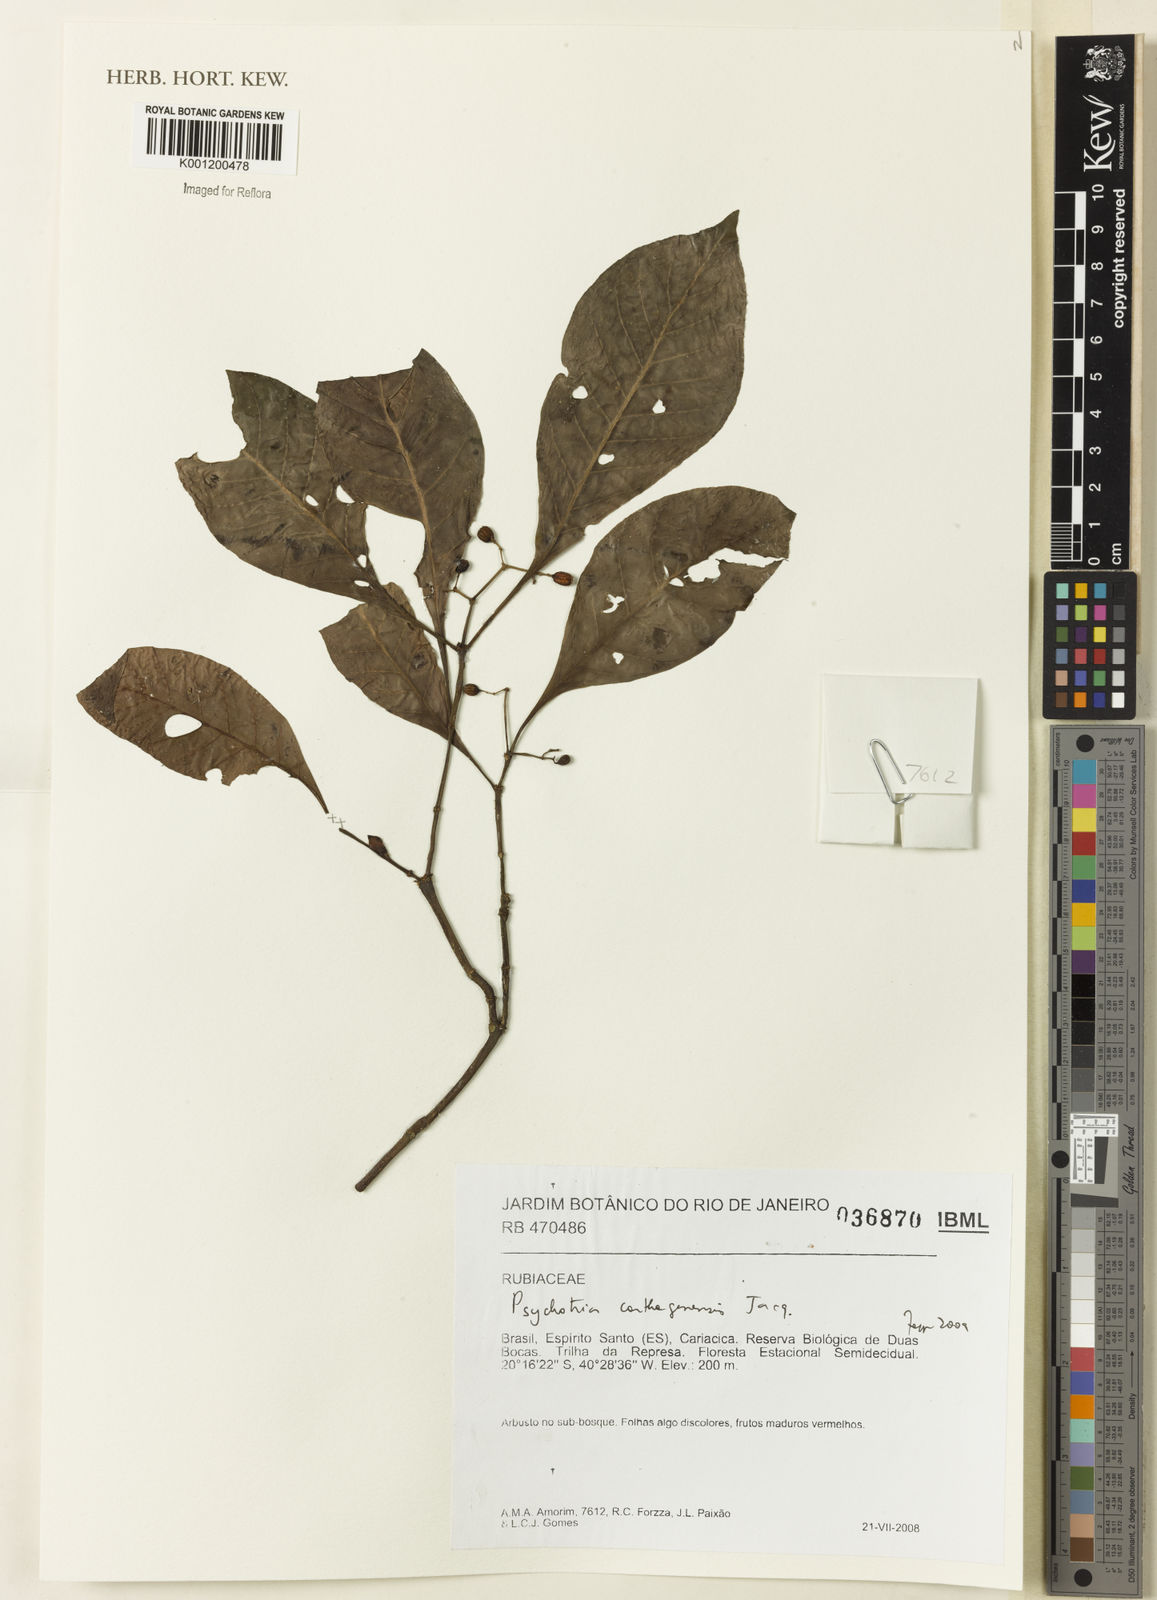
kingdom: Plantae
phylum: Tracheophyta
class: Magnoliopsida
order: Gentianales
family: Rubiaceae
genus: Psychotria
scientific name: Psychotria carthagenensis
